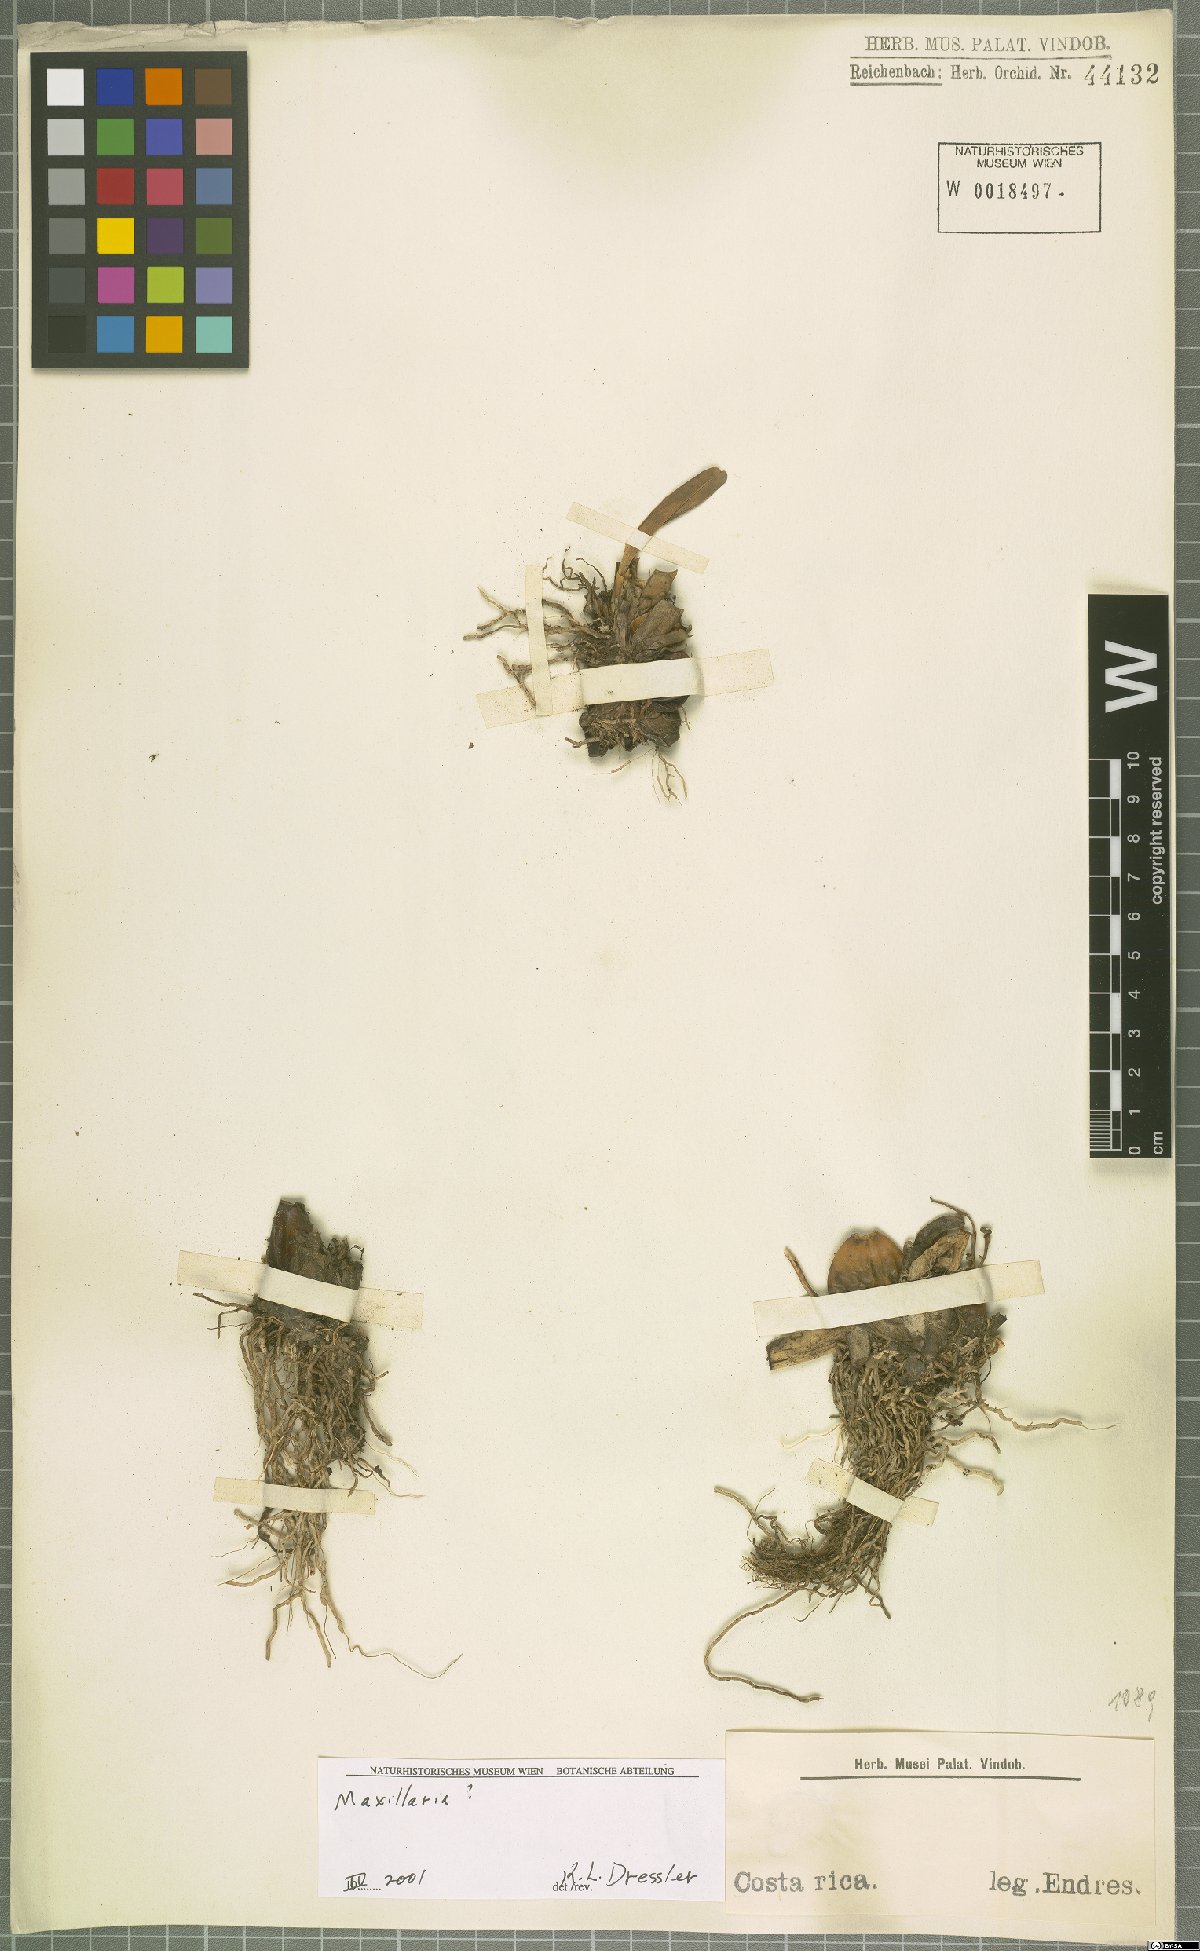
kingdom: Plantae
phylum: Tracheophyta
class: Liliopsida
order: Asparagales
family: Orchidaceae
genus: Maxillaria
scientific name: Maxillaria
